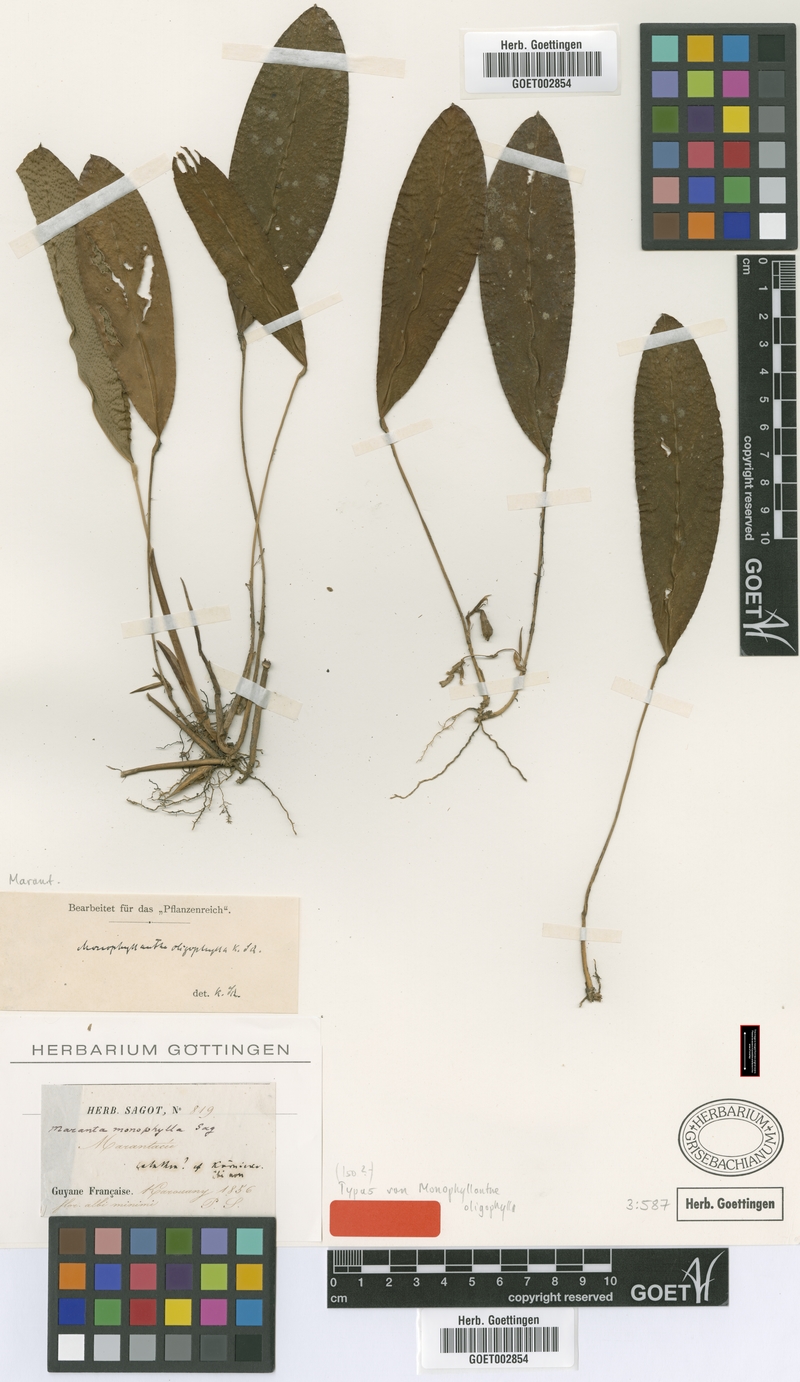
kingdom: Plantae
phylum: Tracheophyta
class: Liliopsida
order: Zingiberales
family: Marantaceae
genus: Monophyllanthe
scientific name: Monophyllanthe oligophylla
